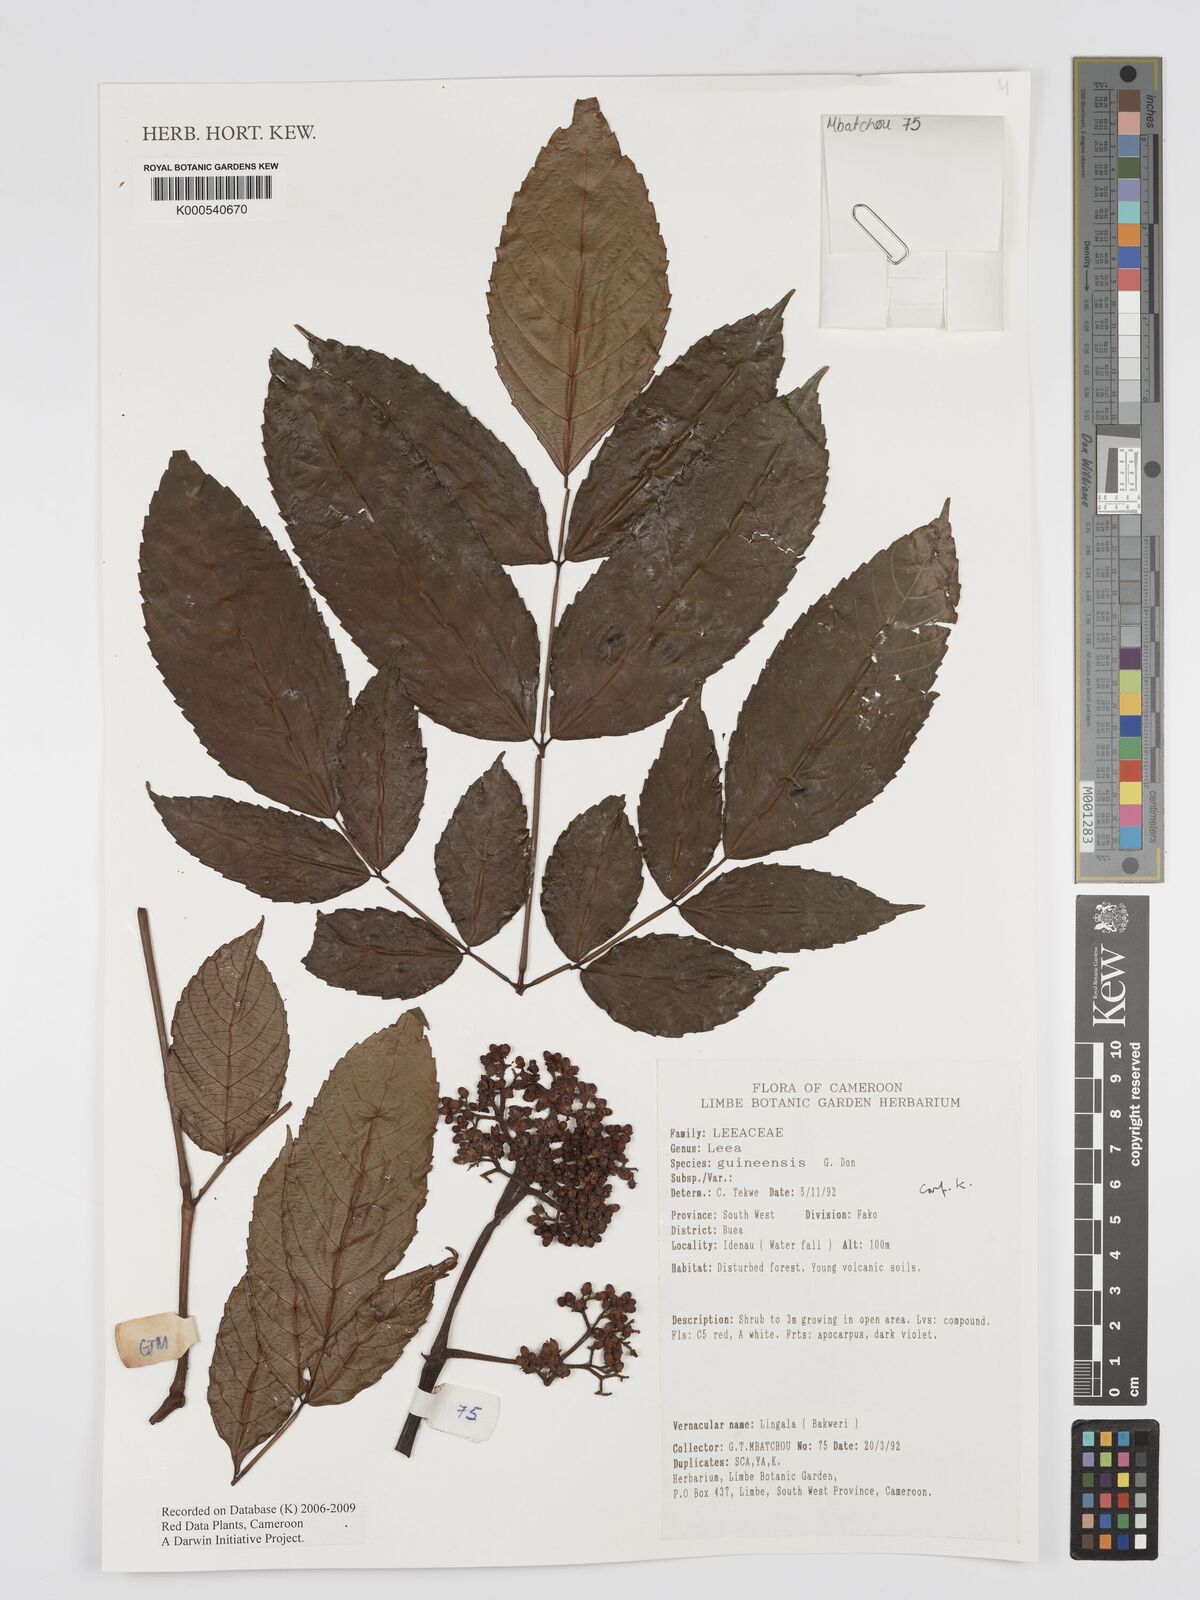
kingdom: Plantae
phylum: Tracheophyta
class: Magnoliopsida
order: Vitales
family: Vitaceae
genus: Leea
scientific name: Leea guineensis
